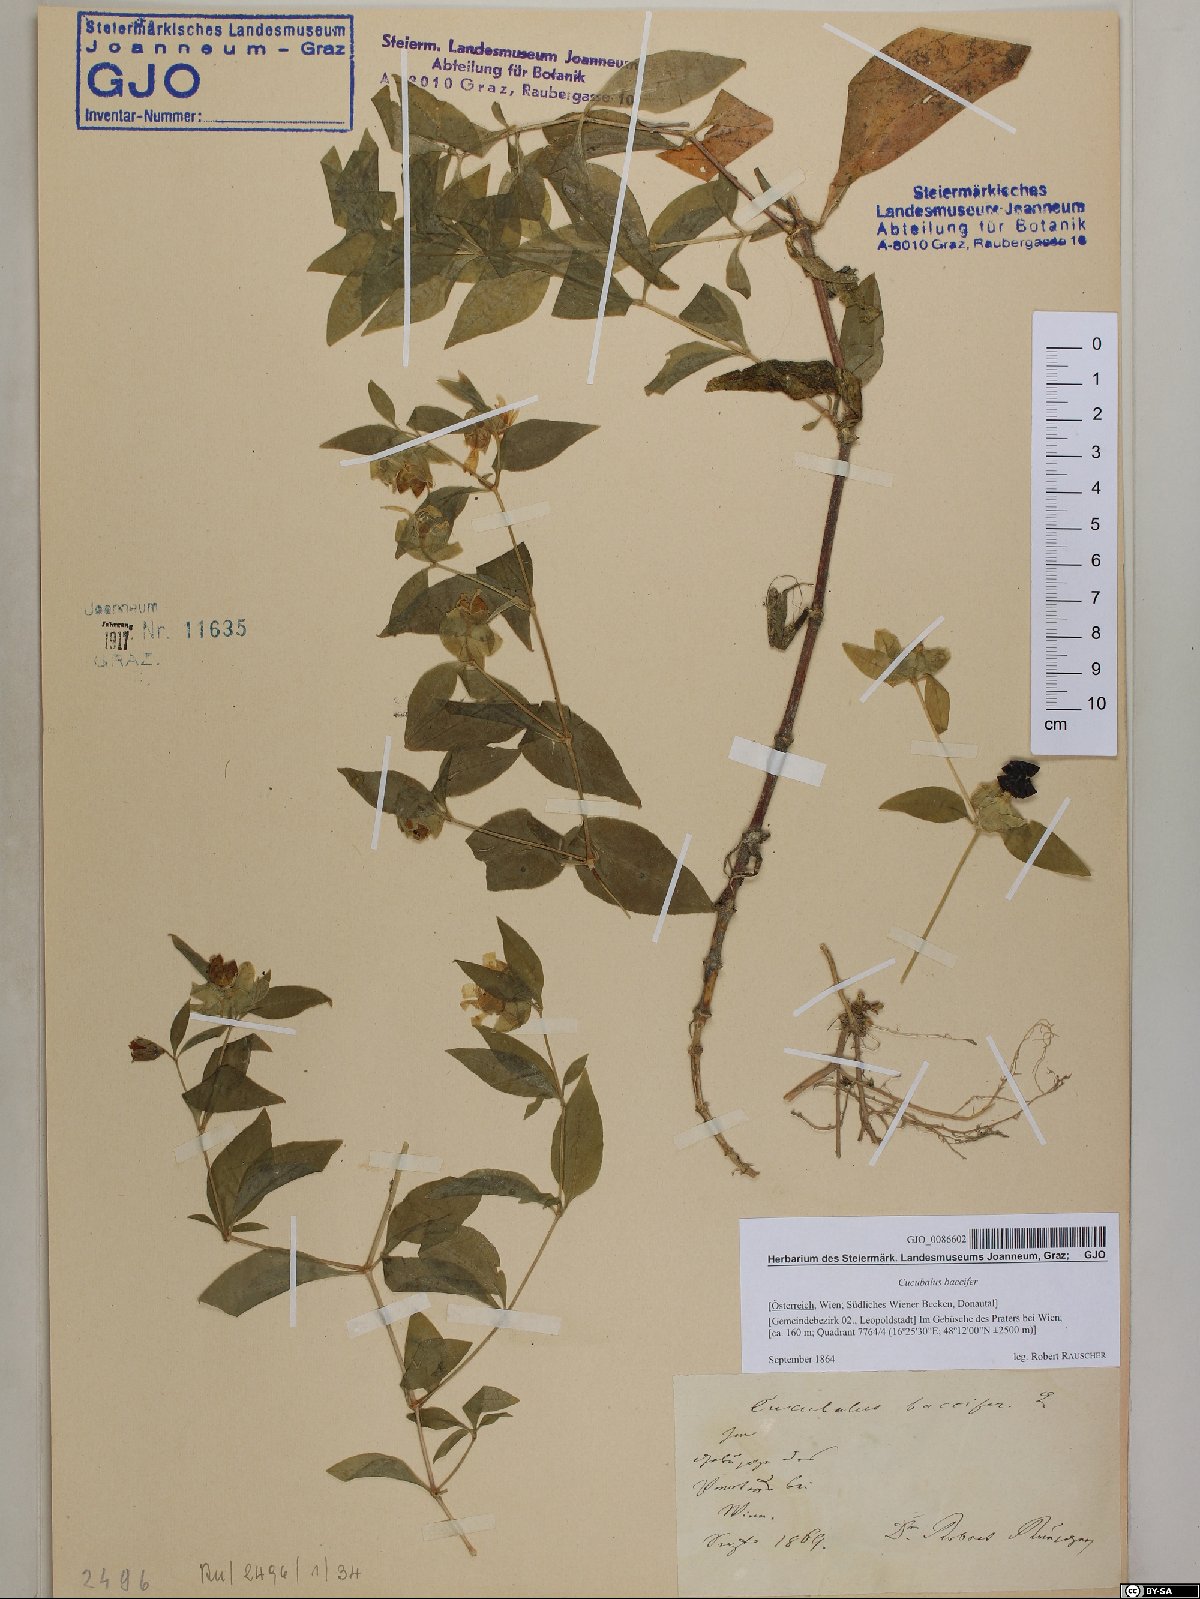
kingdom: Plantae
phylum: Tracheophyta
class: Magnoliopsida
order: Caryophyllales
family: Caryophyllaceae
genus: Silene
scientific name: Silene baccifera
